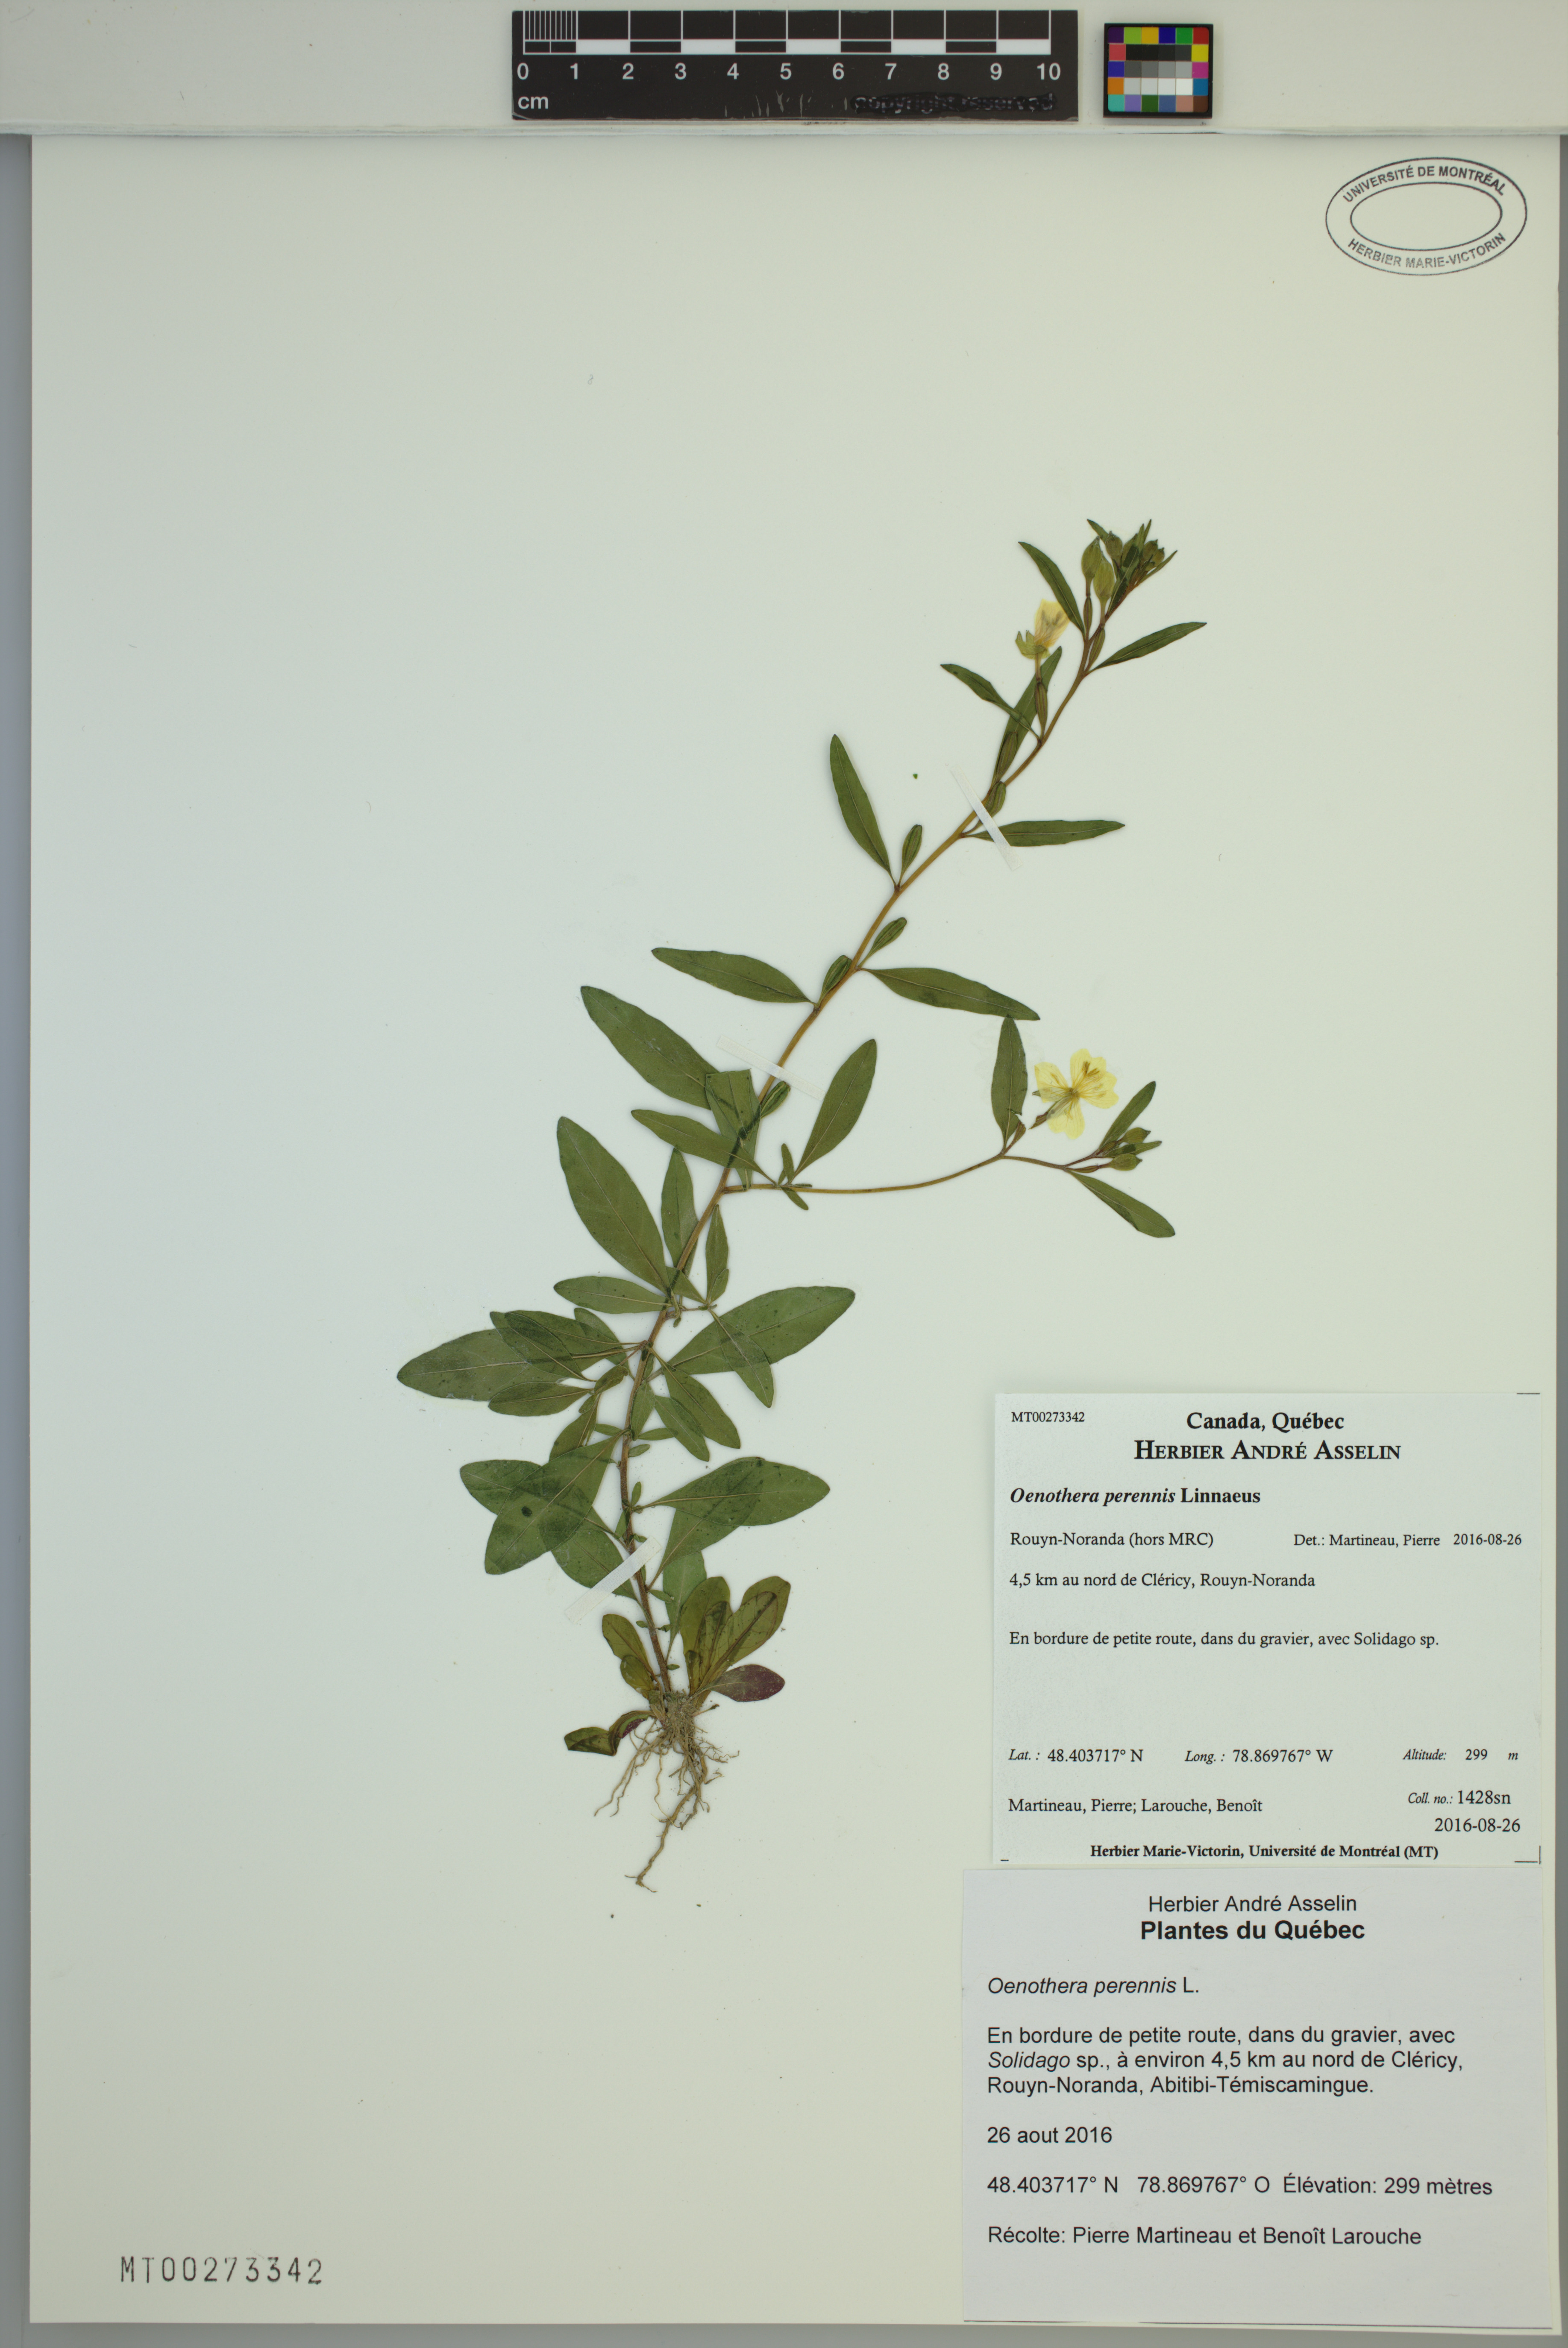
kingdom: Plantae
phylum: Tracheophyta
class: Magnoliopsida
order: Myrtales
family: Onagraceae
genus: Oenothera
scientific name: Oenothera perennis
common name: Small sundrops
